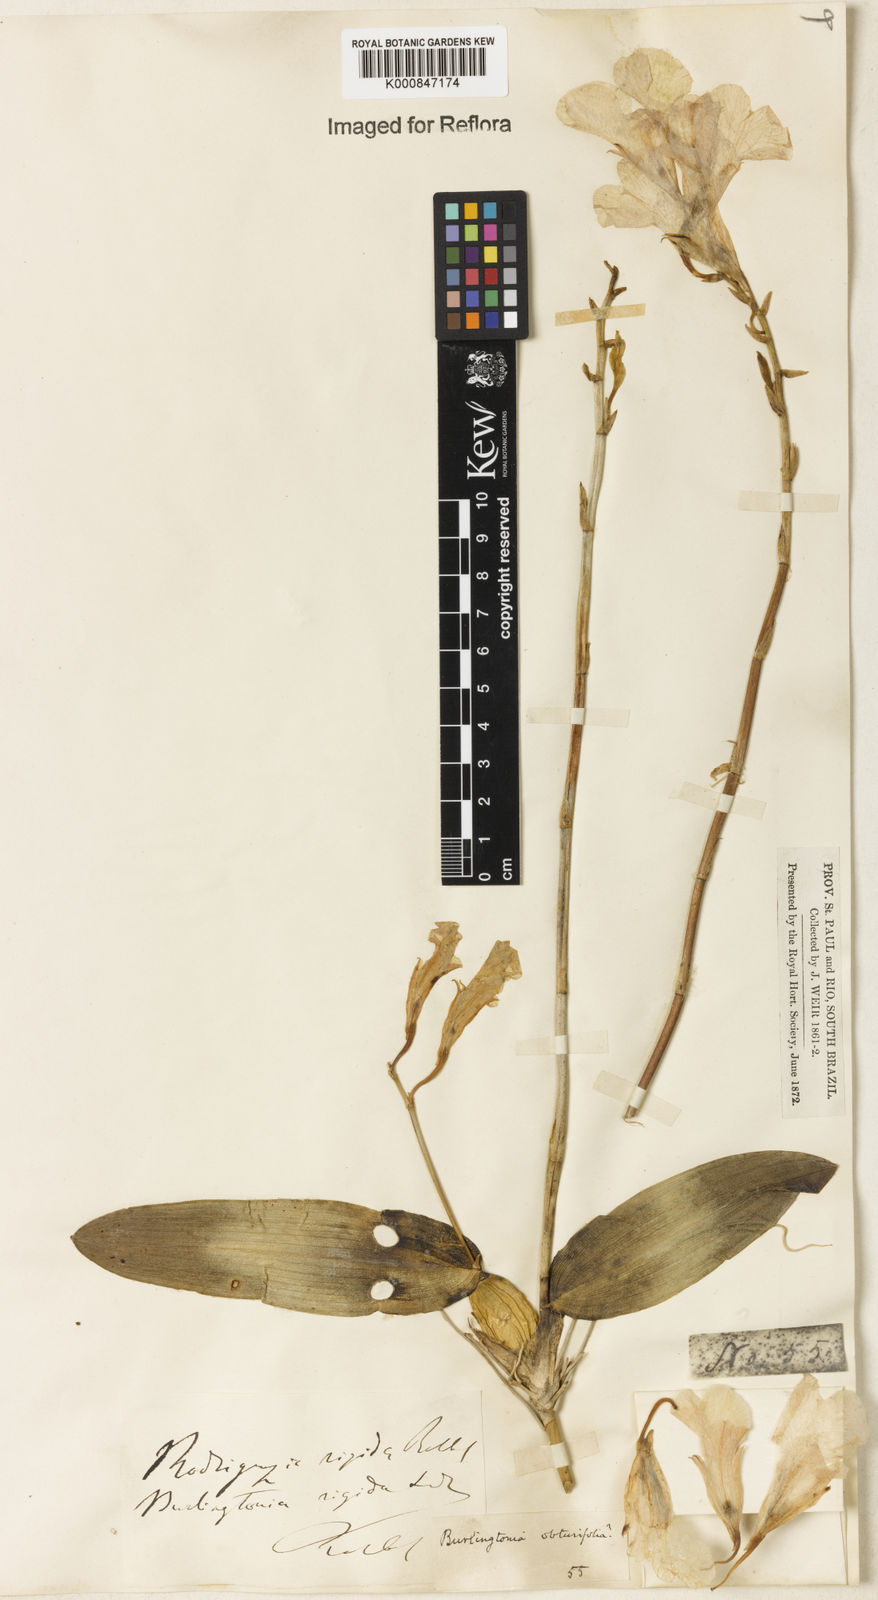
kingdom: Plantae
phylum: Tracheophyta
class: Liliopsida
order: Asparagales
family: Orchidaceae
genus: Rodriguezia
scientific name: Rodriguezia rigida
